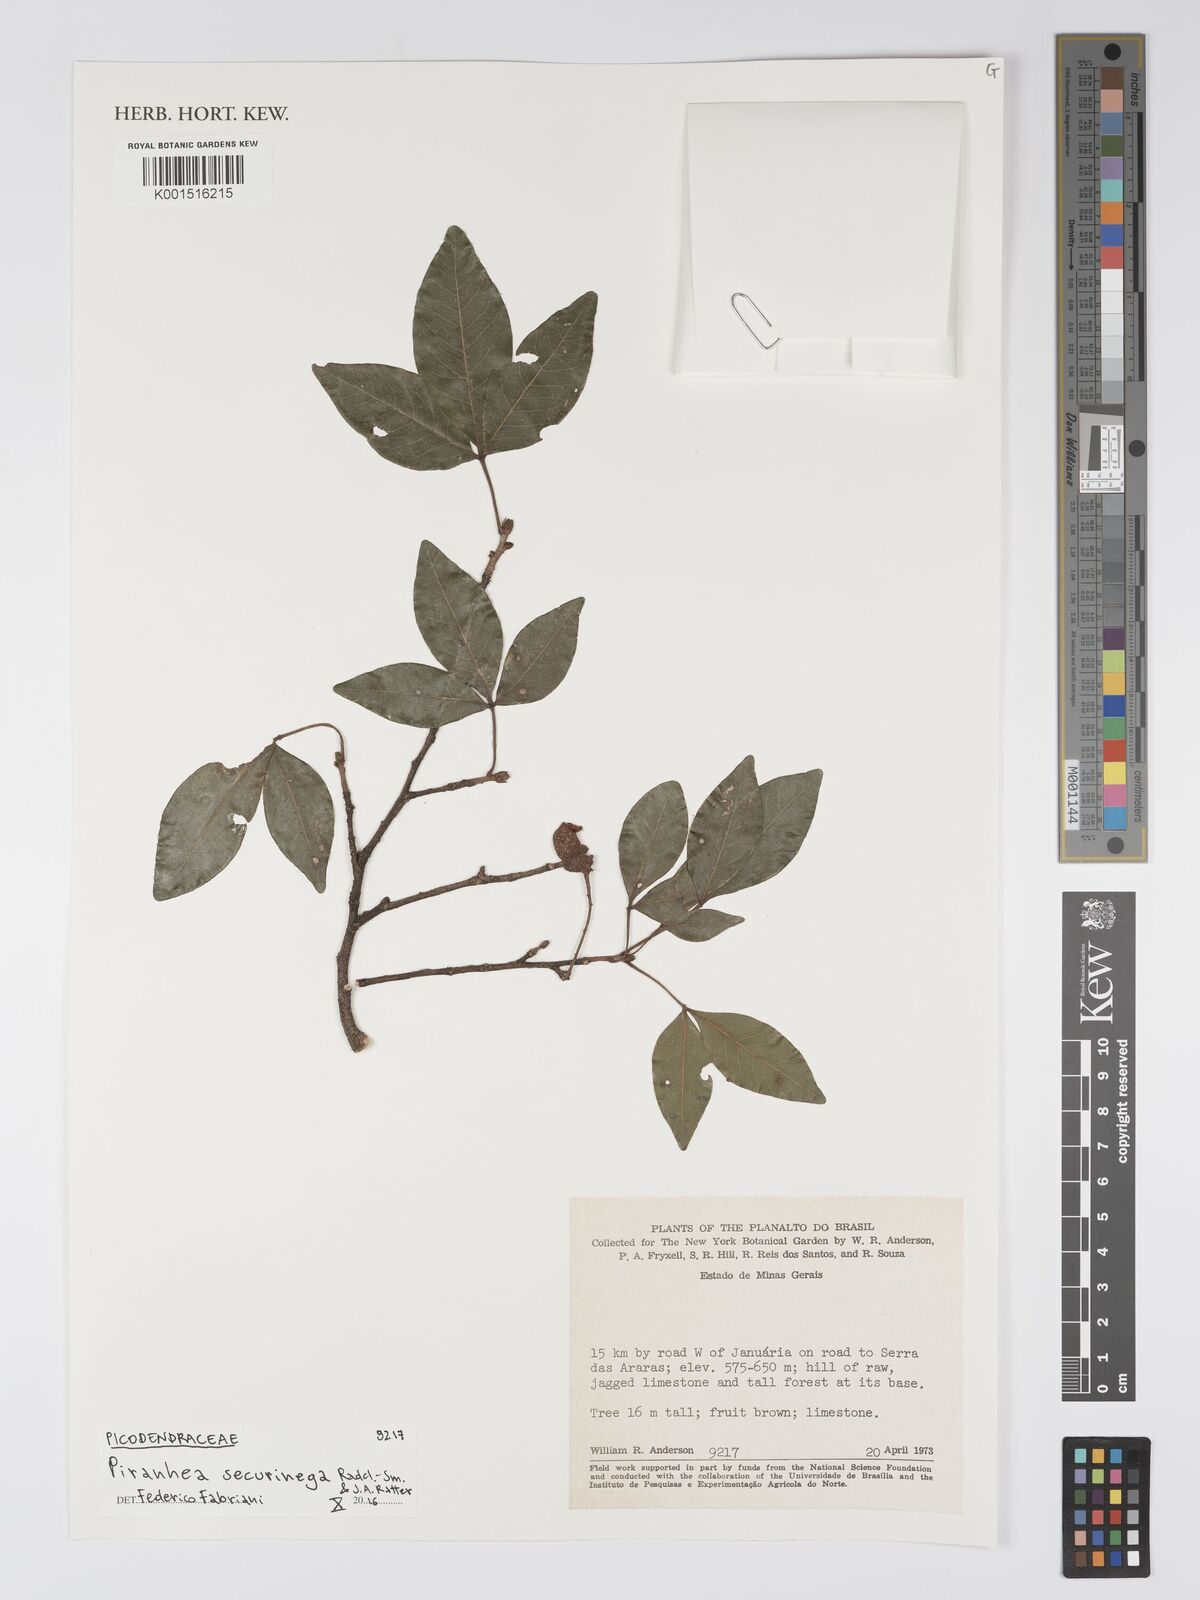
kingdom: Plantae
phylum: Tracheophyta
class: Magnoliopsida
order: Malpighiales
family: Picrodendraceae
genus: Piranhea
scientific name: Piranhea securinega
